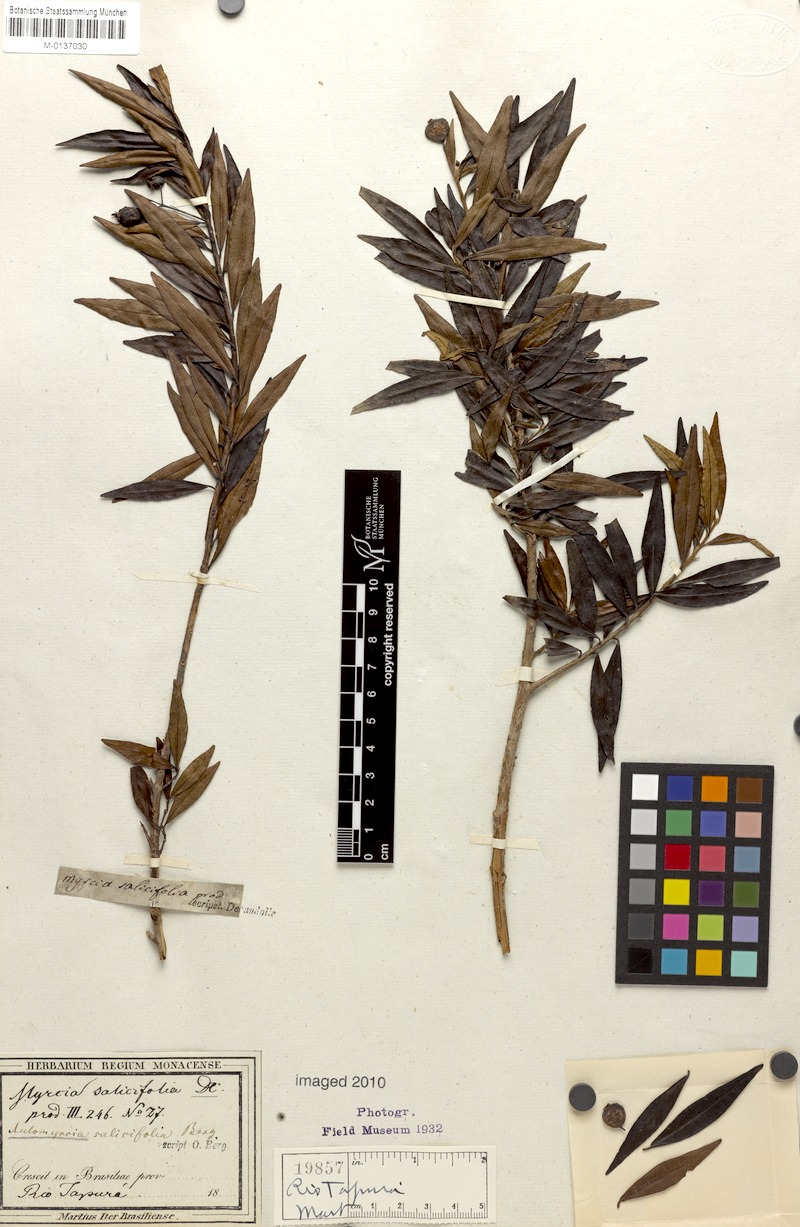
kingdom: Plantae
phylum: Tracheophyta
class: Magnoliopsida
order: Myrtales
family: Myrtaceae
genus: Myrcia
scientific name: Myrcia salicifolia
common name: Insulin plant
